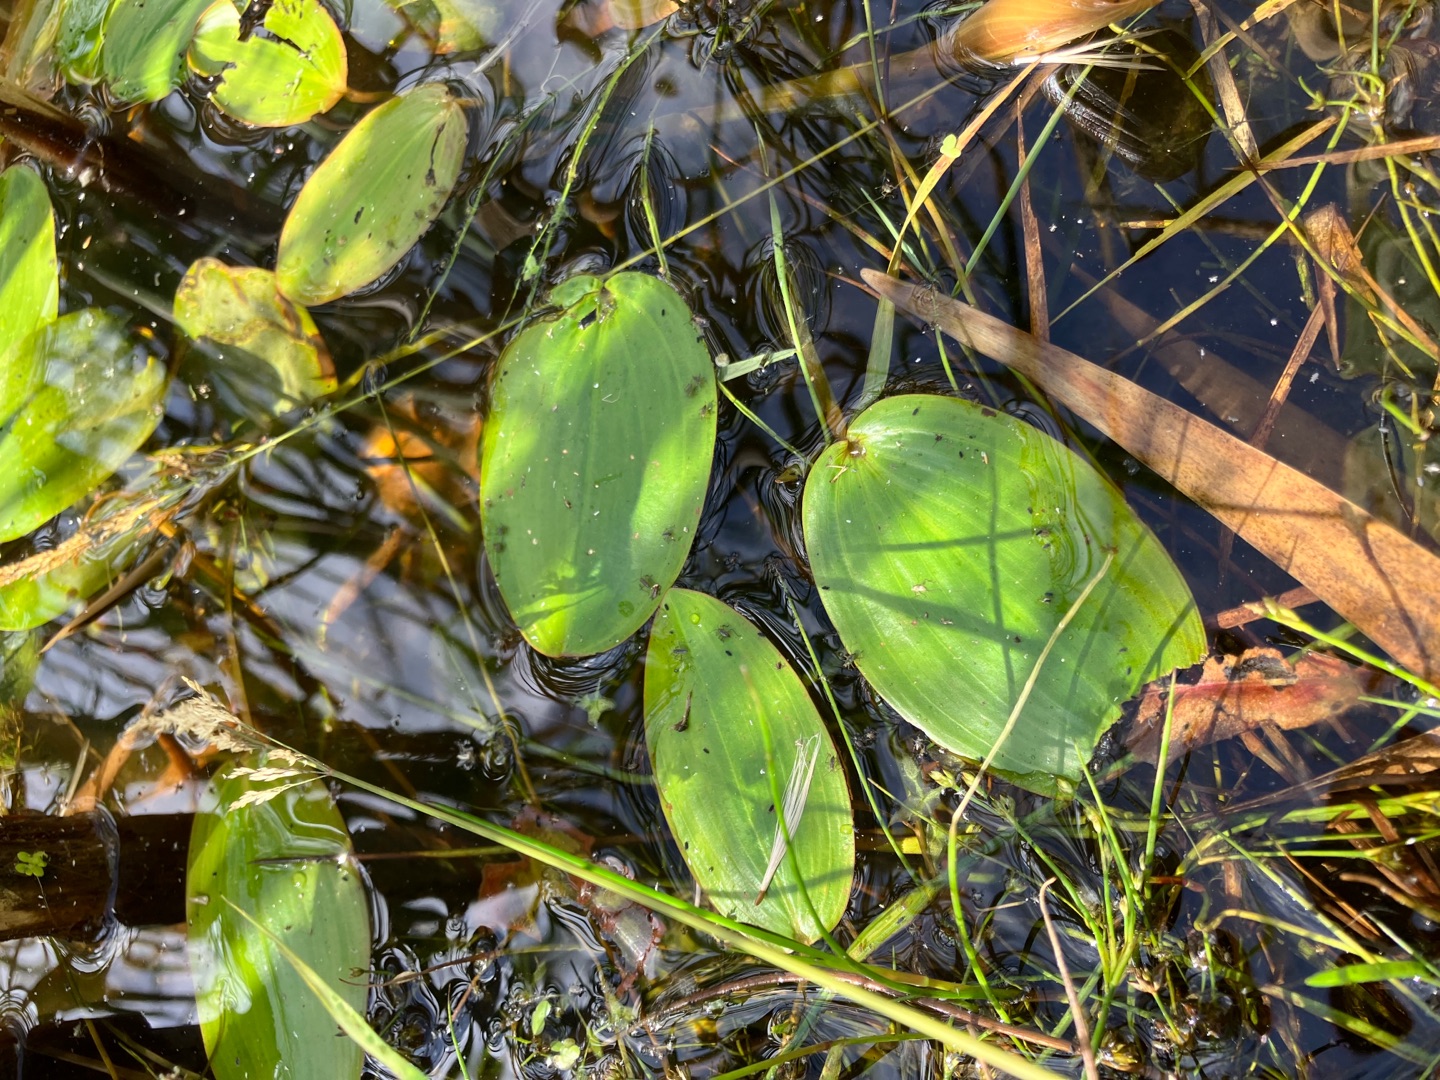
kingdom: Plantae
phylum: Tracheophyta
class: Liliopsida
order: Alismatales
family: Potamogetonaceae
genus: Potamogeton
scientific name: Potamogeton natans
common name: Svømmende vandaks
